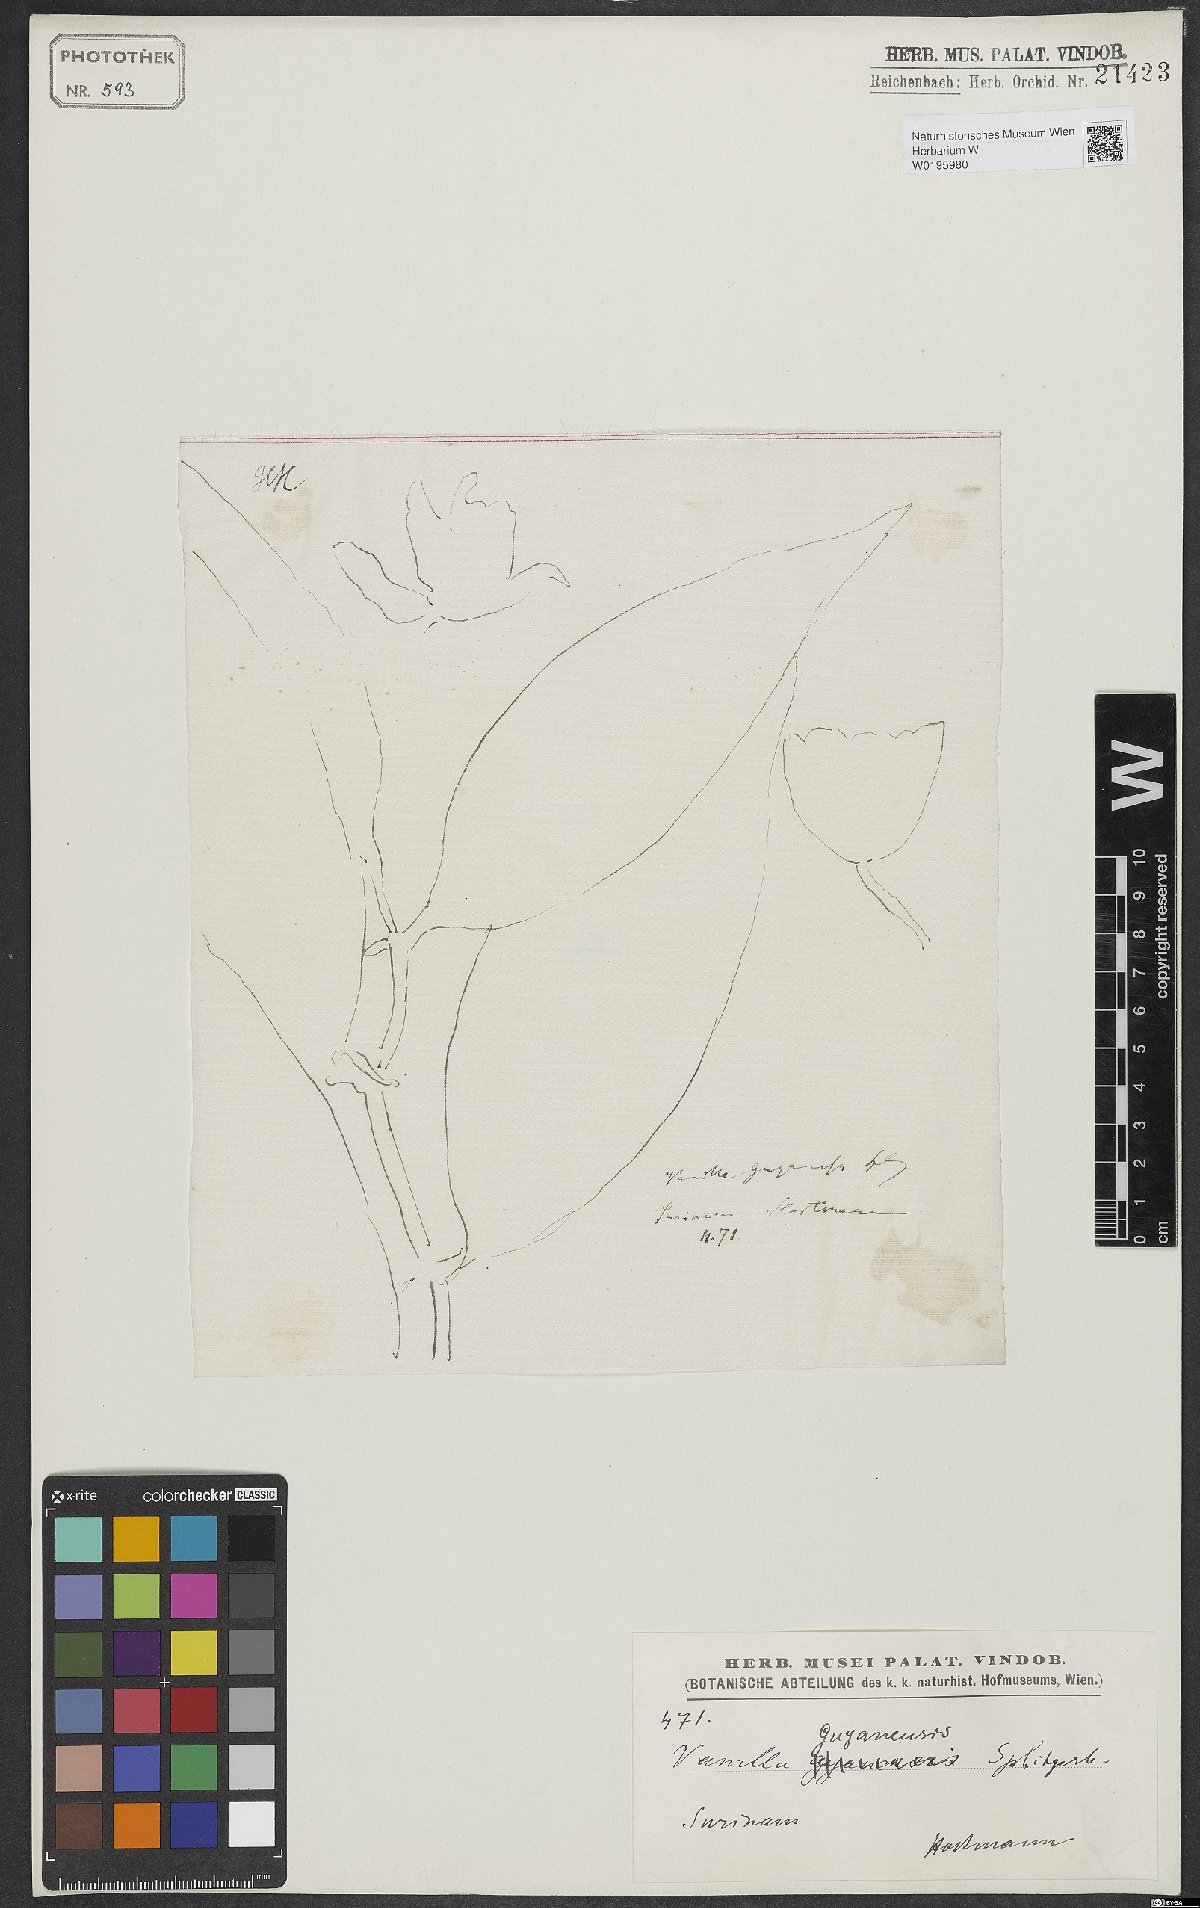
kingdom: Plantae
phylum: Tracheophyta
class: Liliopsida
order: Asparagales
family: Orchidaceae
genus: Vanilla
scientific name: Vanilla guianensis
